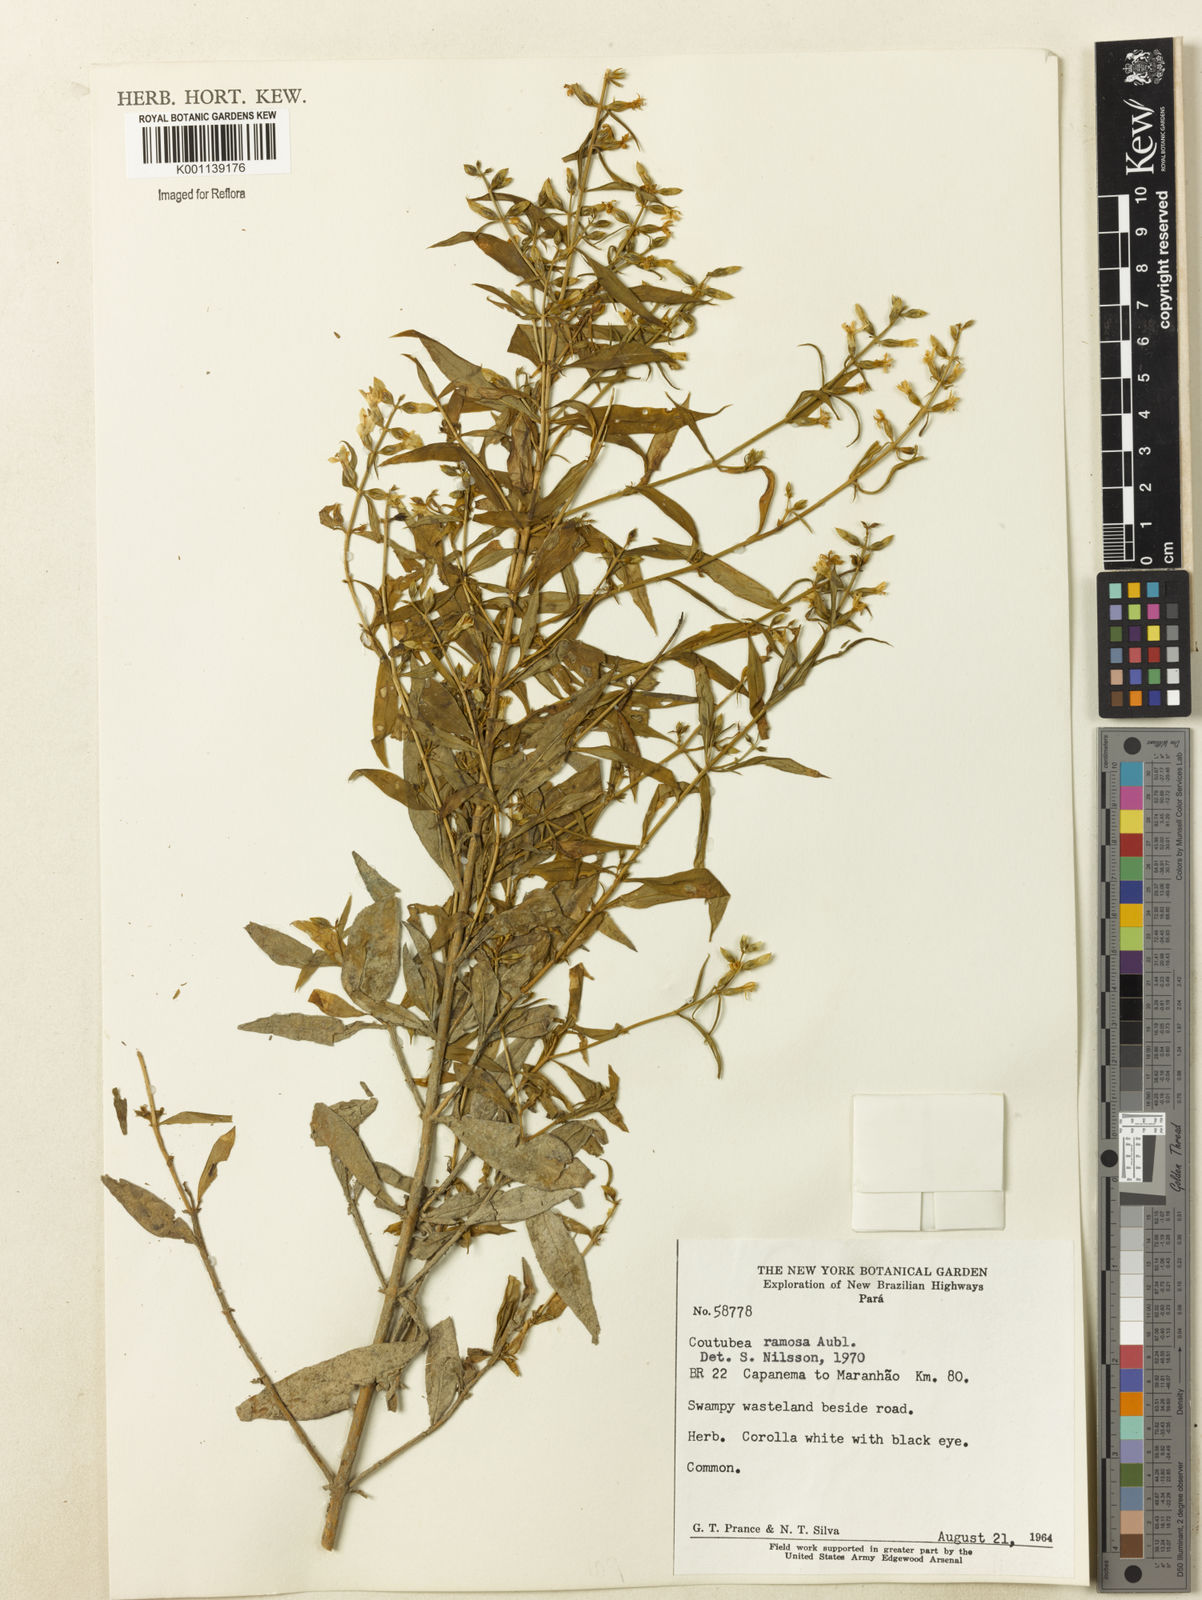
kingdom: Plantae
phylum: Tracheophyta
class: Magnoliopsida
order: Gentianales
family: Gentianaceae
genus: Coutoubea
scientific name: Coutoubea ramosa
